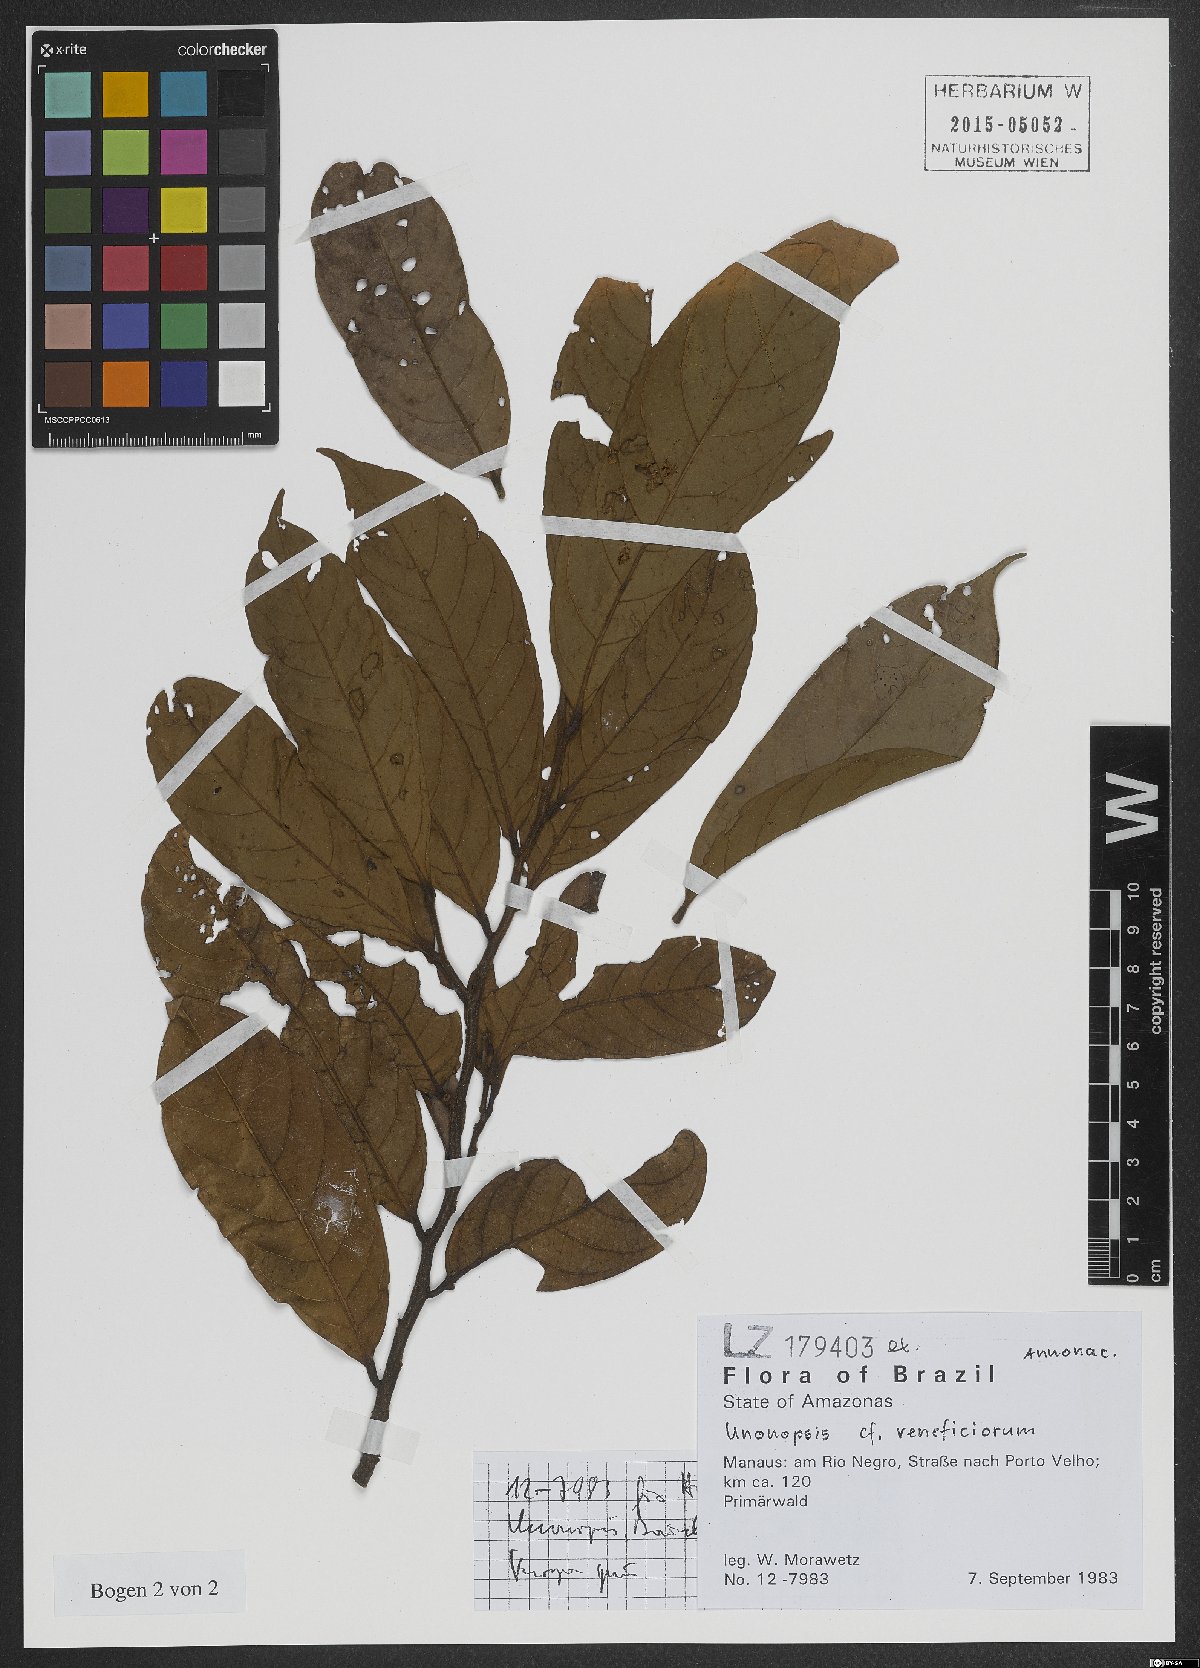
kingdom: Plantae
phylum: Tracheophyta
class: Magnoliopsida
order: Magnoliales
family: Annonaceae
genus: Unonopsis
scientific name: Unonopsis veneficiorum
